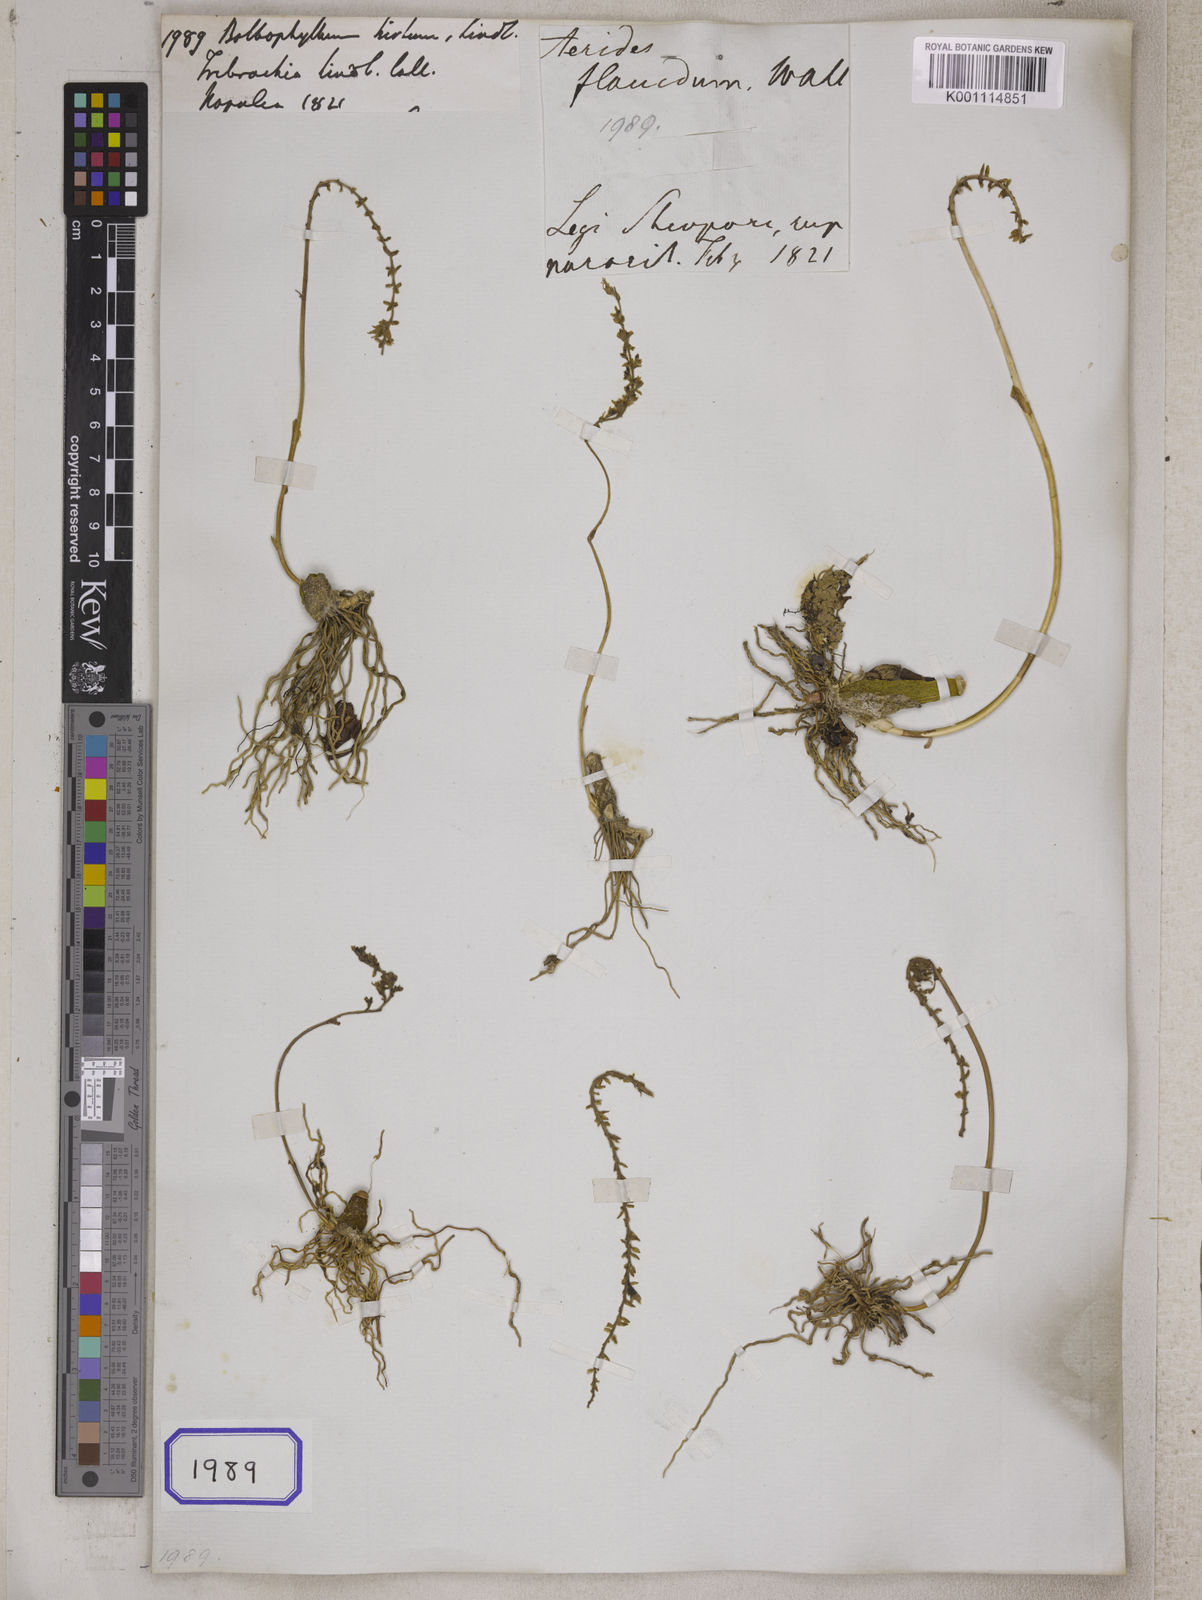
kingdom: Plantae
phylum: Tracheophyta
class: Liliopsida
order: Asparagales
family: Orchidaceae
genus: Bulbophyllum
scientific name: Bulbophyllum
